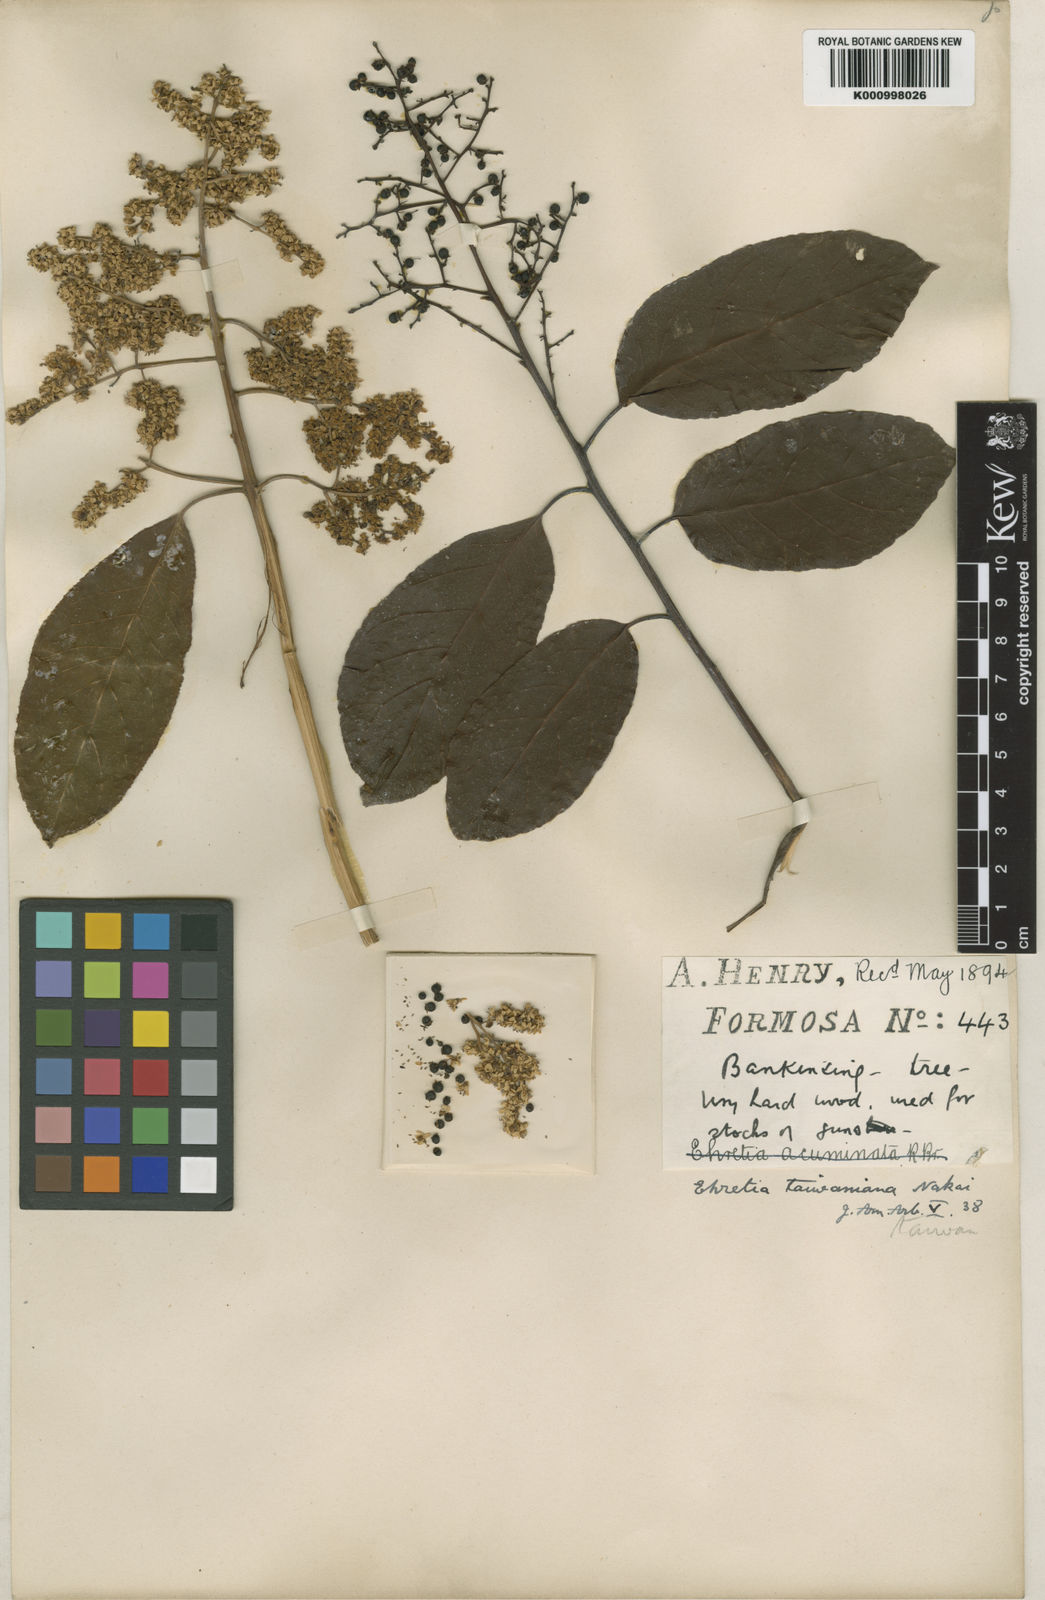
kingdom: Plantae
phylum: Tracheophyta
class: Magnoliopsida
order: Boraginales
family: Ehretiaceae
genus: Ehretia
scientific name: Ehretia acuminata
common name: Kodo wood
